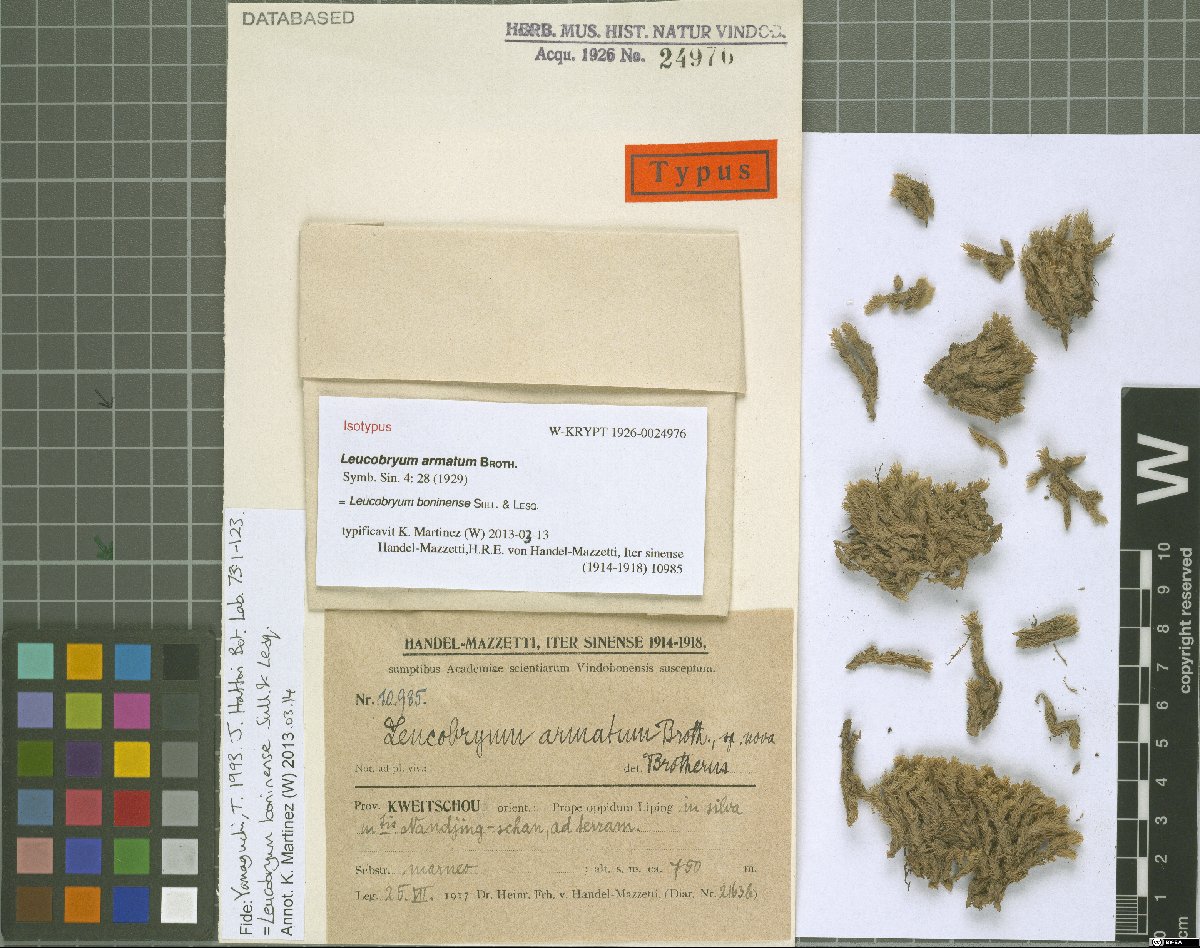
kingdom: Plantae
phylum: Bryophyta
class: Bryopsida
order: Dicranales
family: Leucobryaceae
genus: Leucobryum
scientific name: Leucobryum scaberulum
